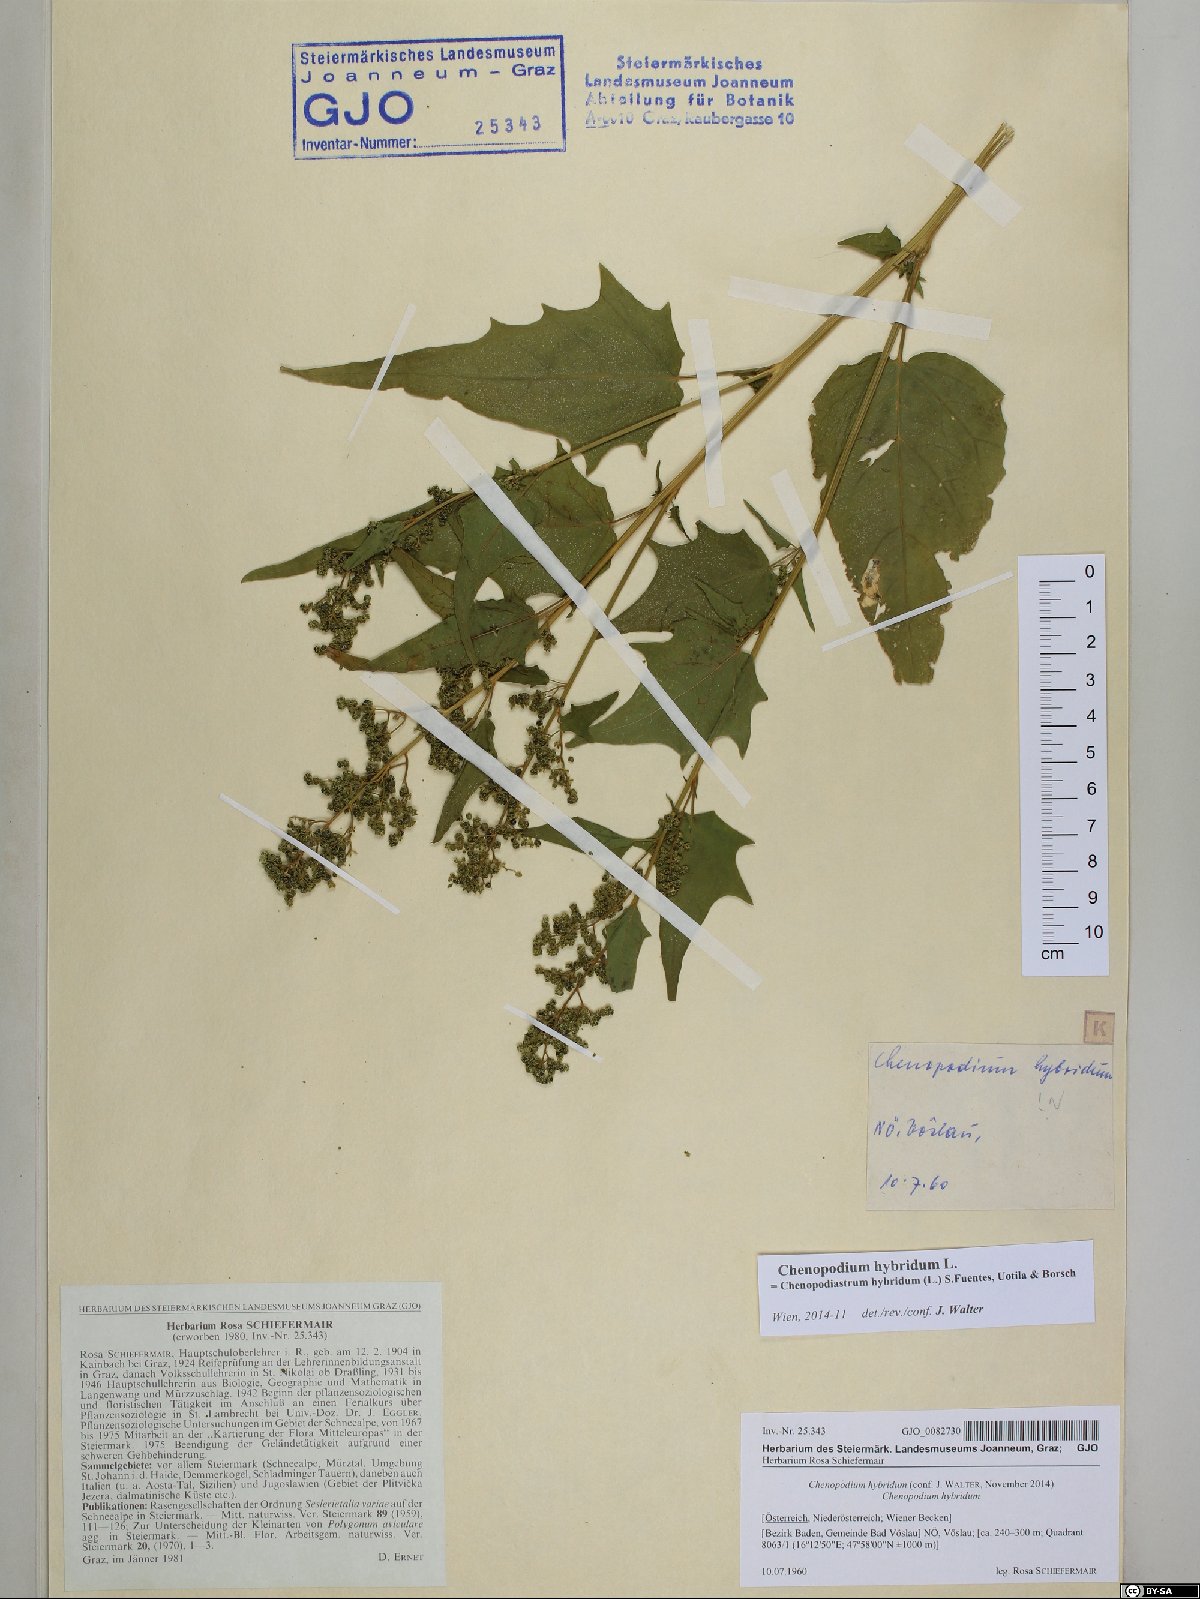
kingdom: Plantae
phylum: Tracheophyta
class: Magnoliopsida
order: Caryophyllales
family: Amaranthaceae
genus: Chenopodiastrum
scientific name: Chenopodiastrum hybridum
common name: Mapleleaf goosefoot
